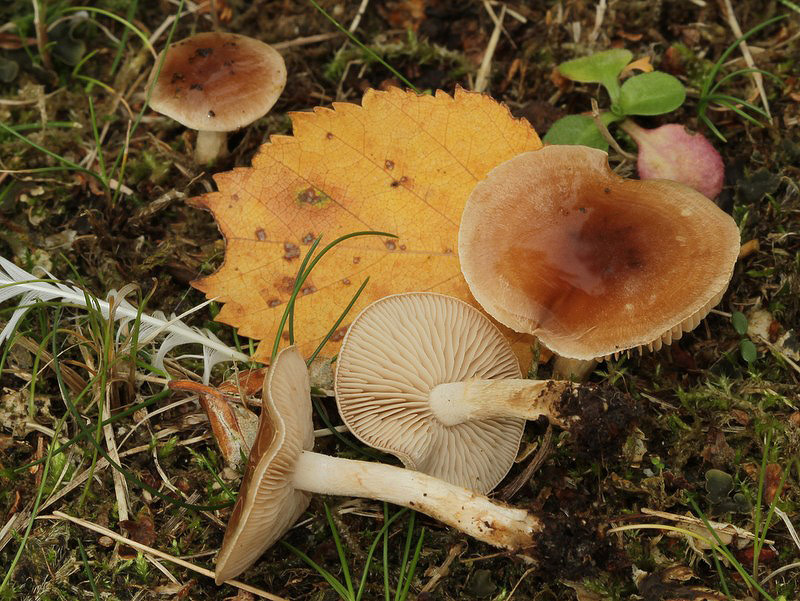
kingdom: Fungi
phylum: Basidiomycota
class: Agaricomycetes
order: Agaricales
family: Hymenogastraceae
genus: Hebeloma
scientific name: Hebeloma mesophaeum
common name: lerbrun tåreblad
